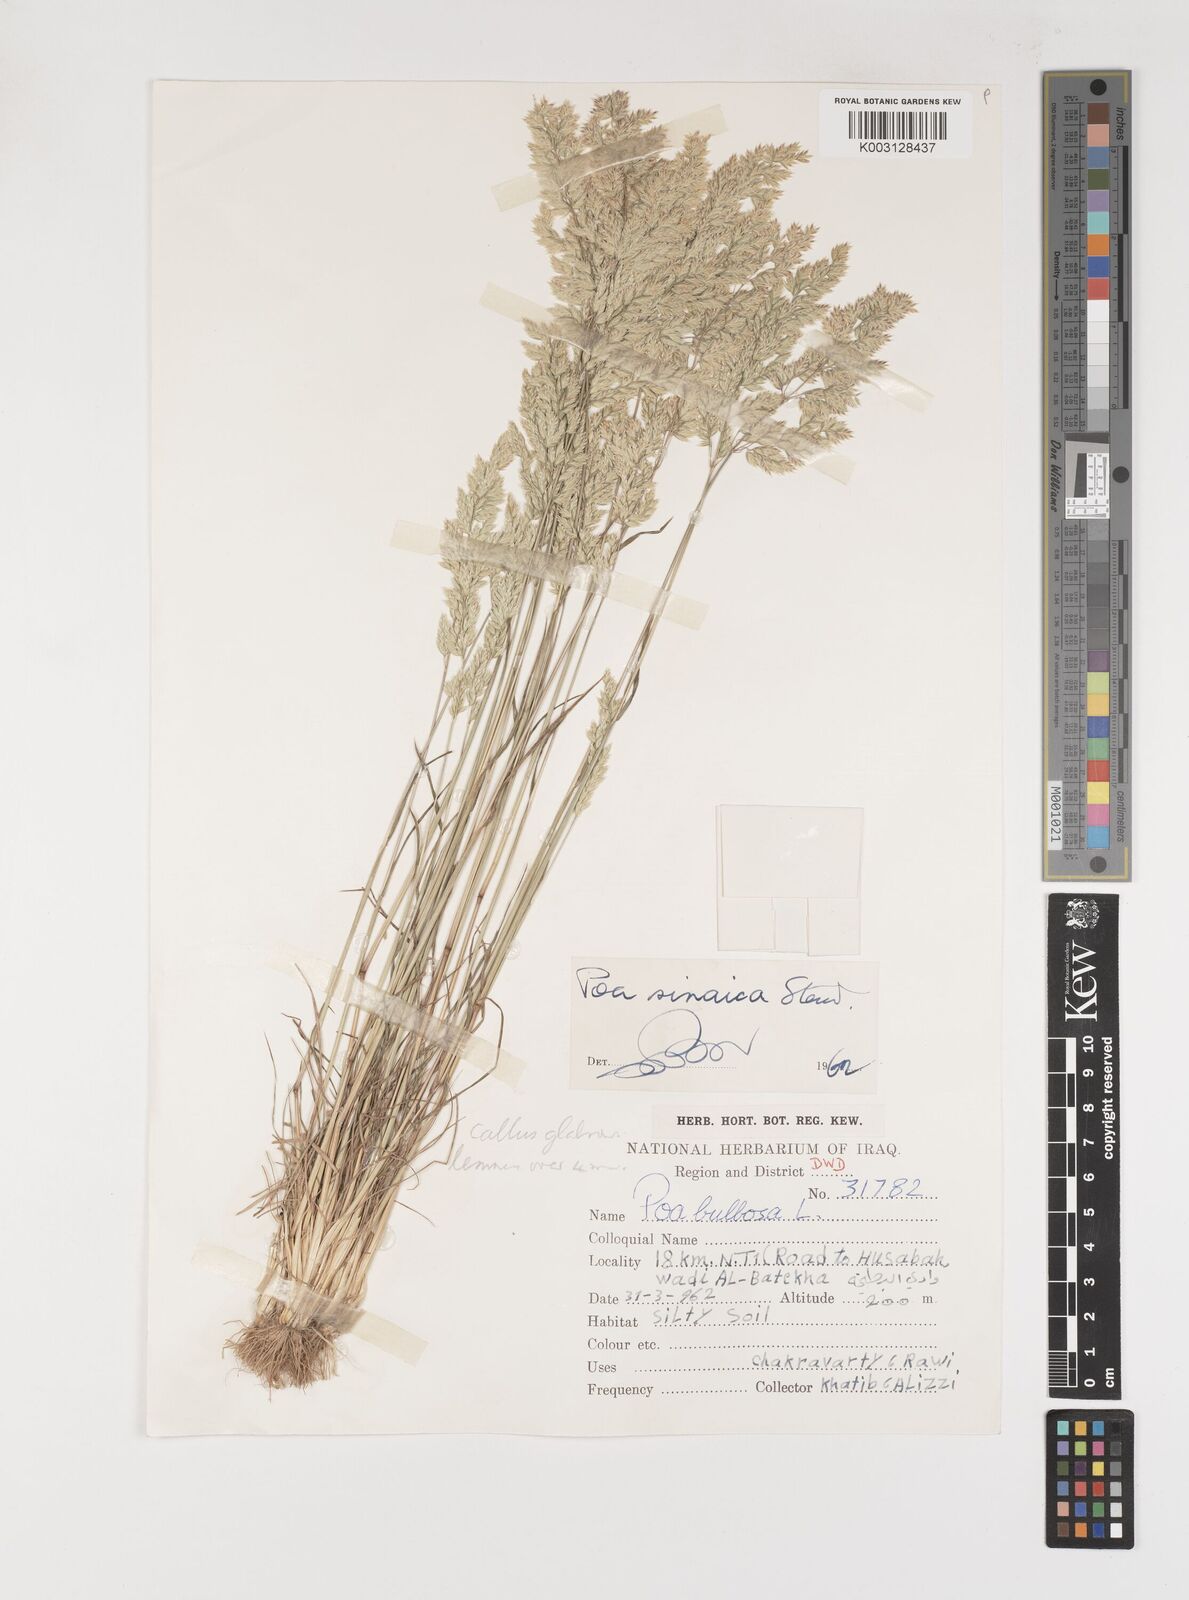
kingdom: Plantae
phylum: Tracheophyta
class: Liliopsida
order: Poales
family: Poaceae
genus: Poa
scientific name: Poa sinaica
